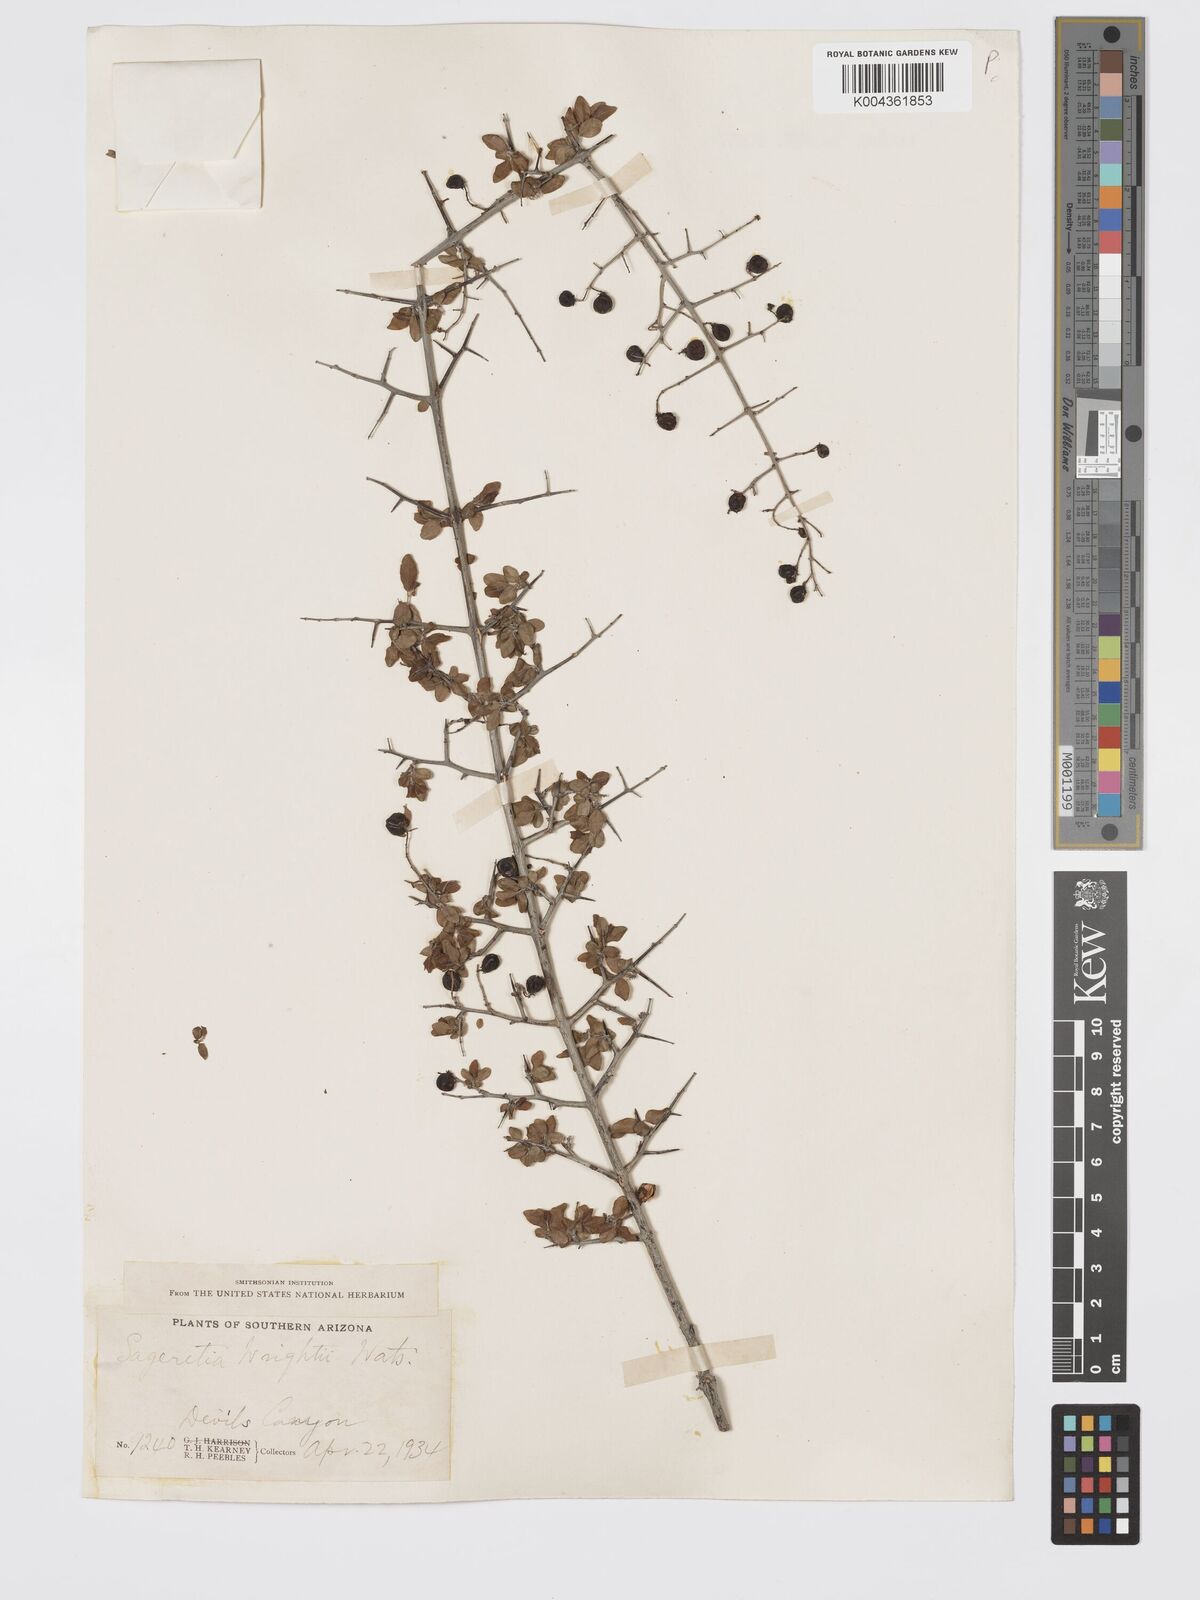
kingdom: Plantae
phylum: Tracheophyta
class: Magnoliopsida
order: Rosales
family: Rhamnaceae
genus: Sageretia
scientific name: Sageretia wrightii
